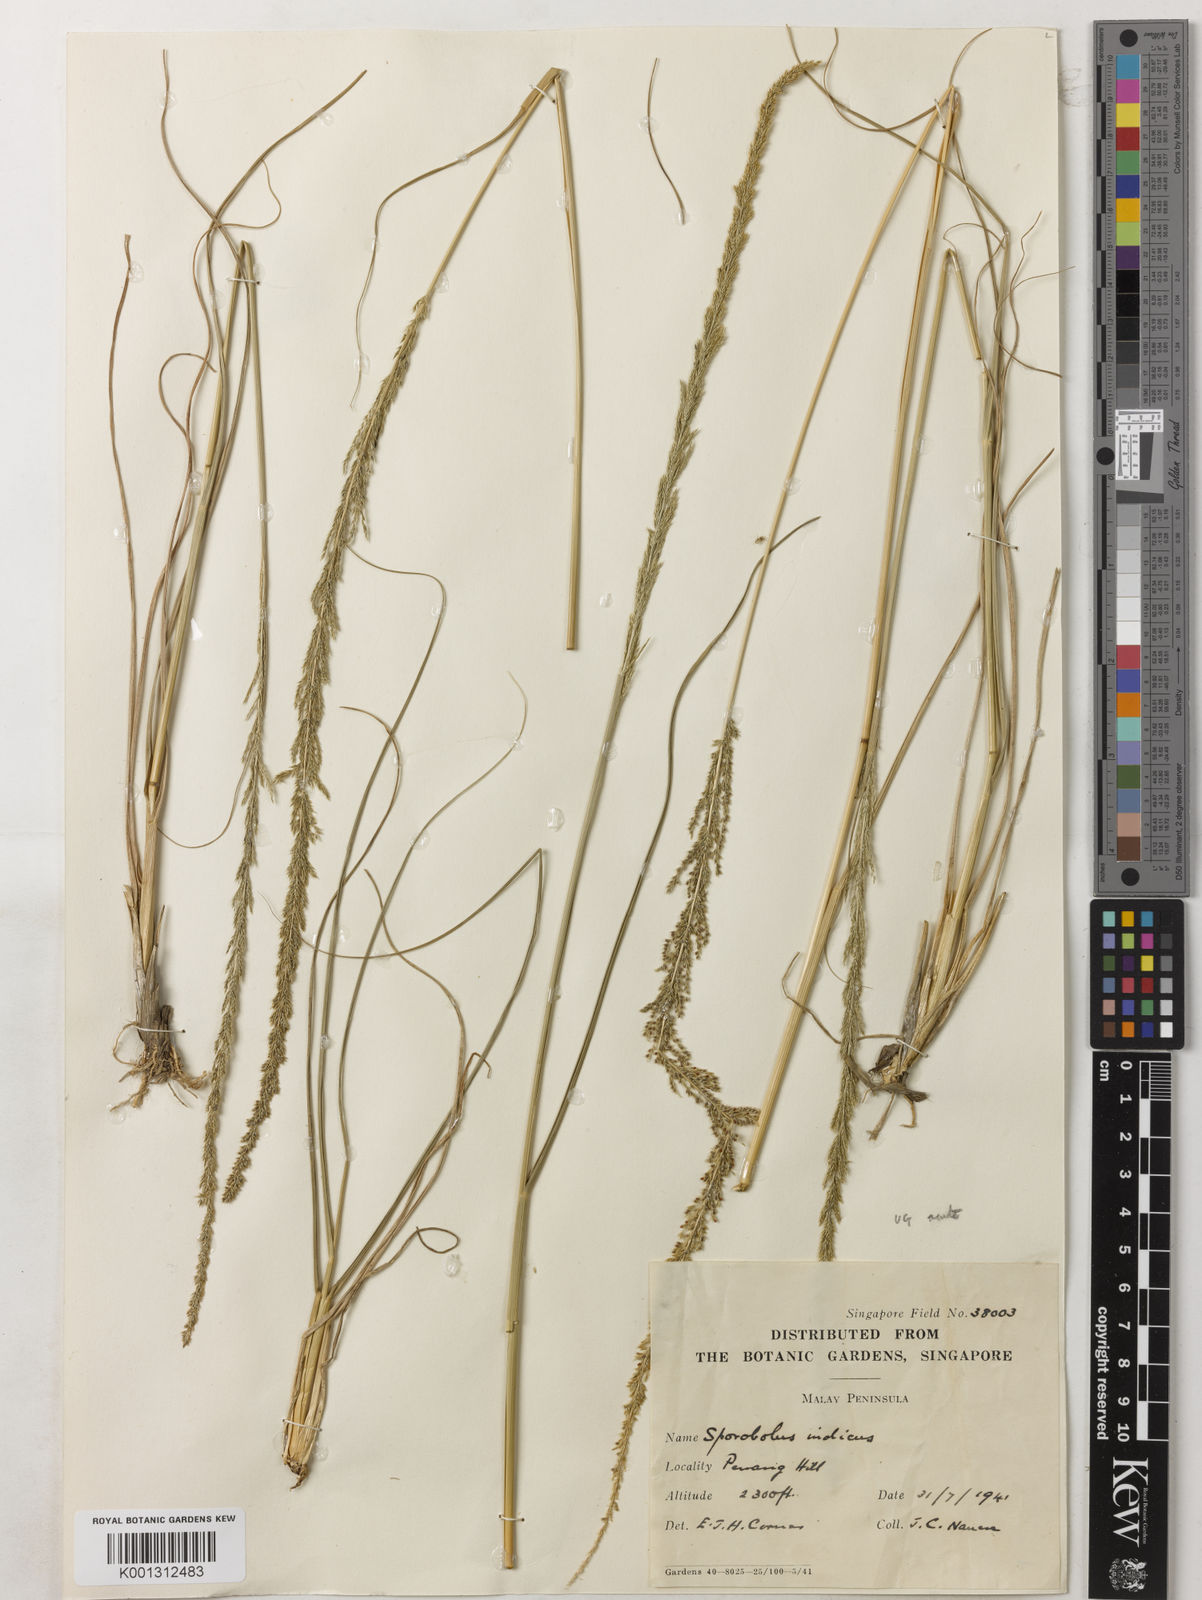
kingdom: Plantae
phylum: Tracheophyta
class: Liliopsida
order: Poales
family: Poaceae
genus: Sporobolus
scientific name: Sporobolus fertilis
